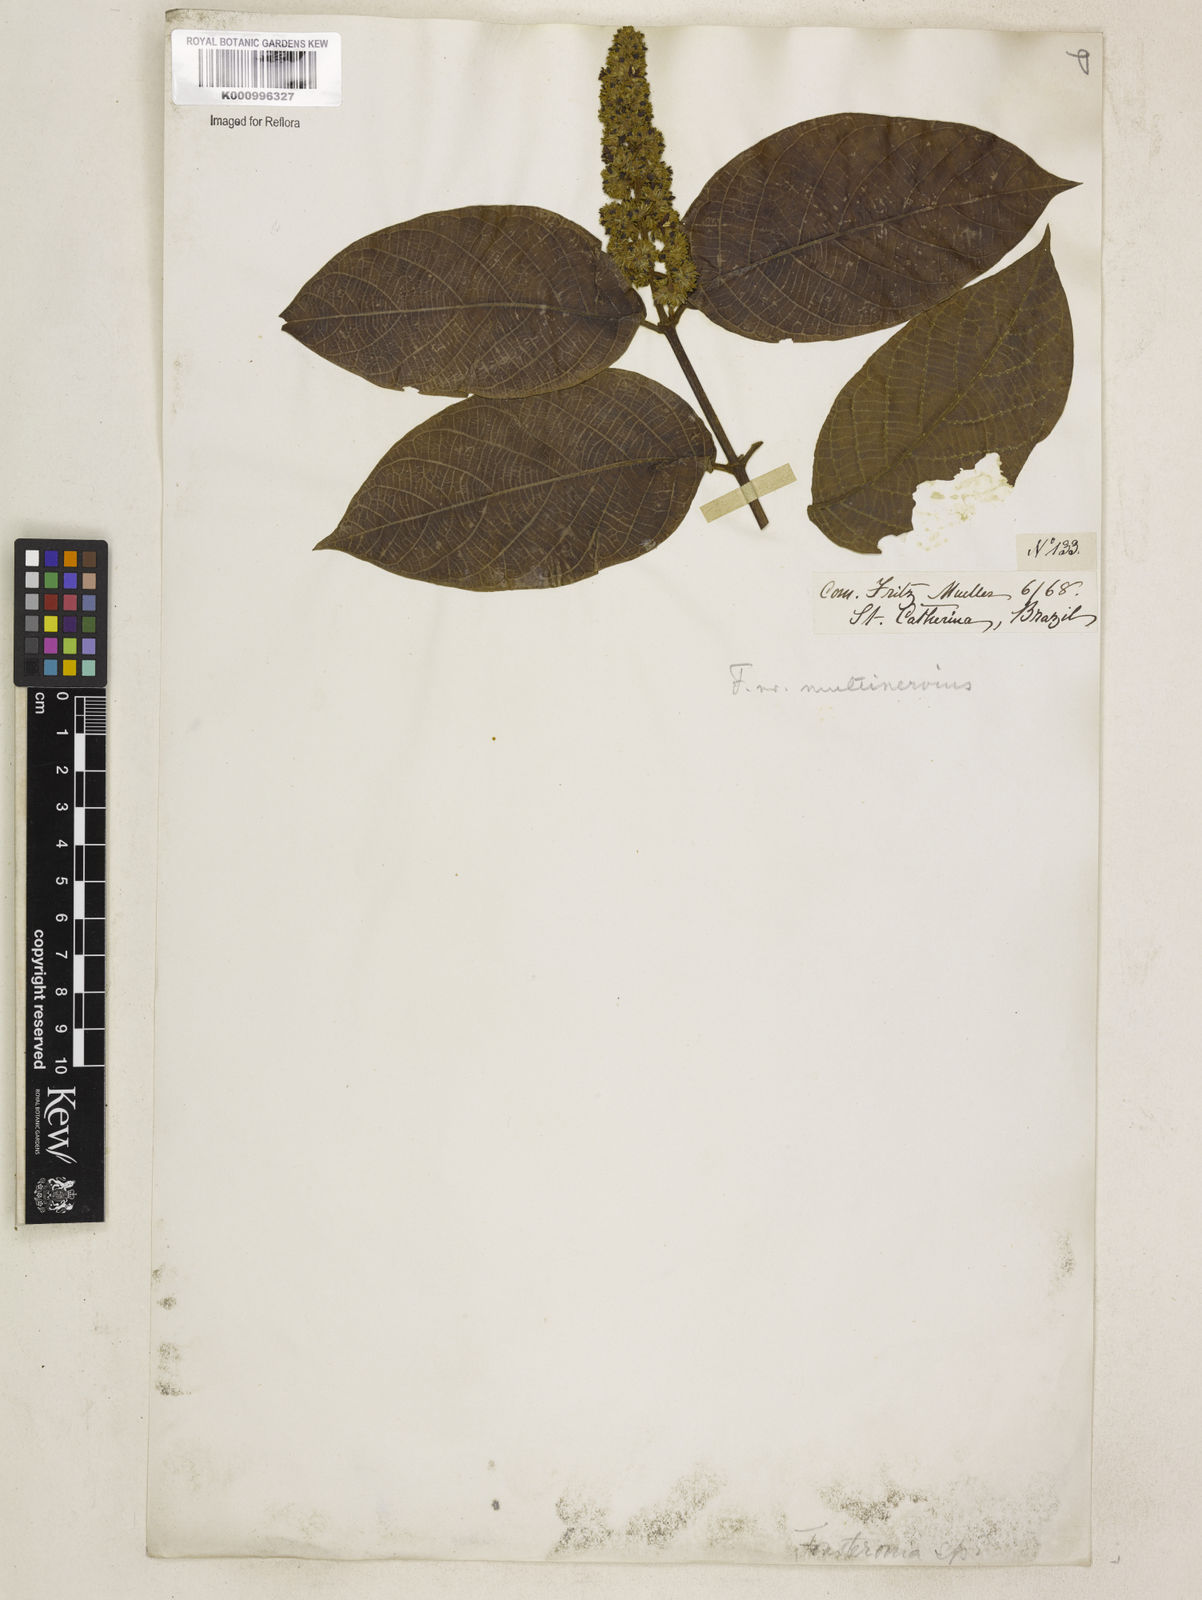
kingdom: Plantae
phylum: Tracheophyta
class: Magnoliopsida
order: Gentianales
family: Apocynaceae
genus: Forsteronia
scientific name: Forsteronia
